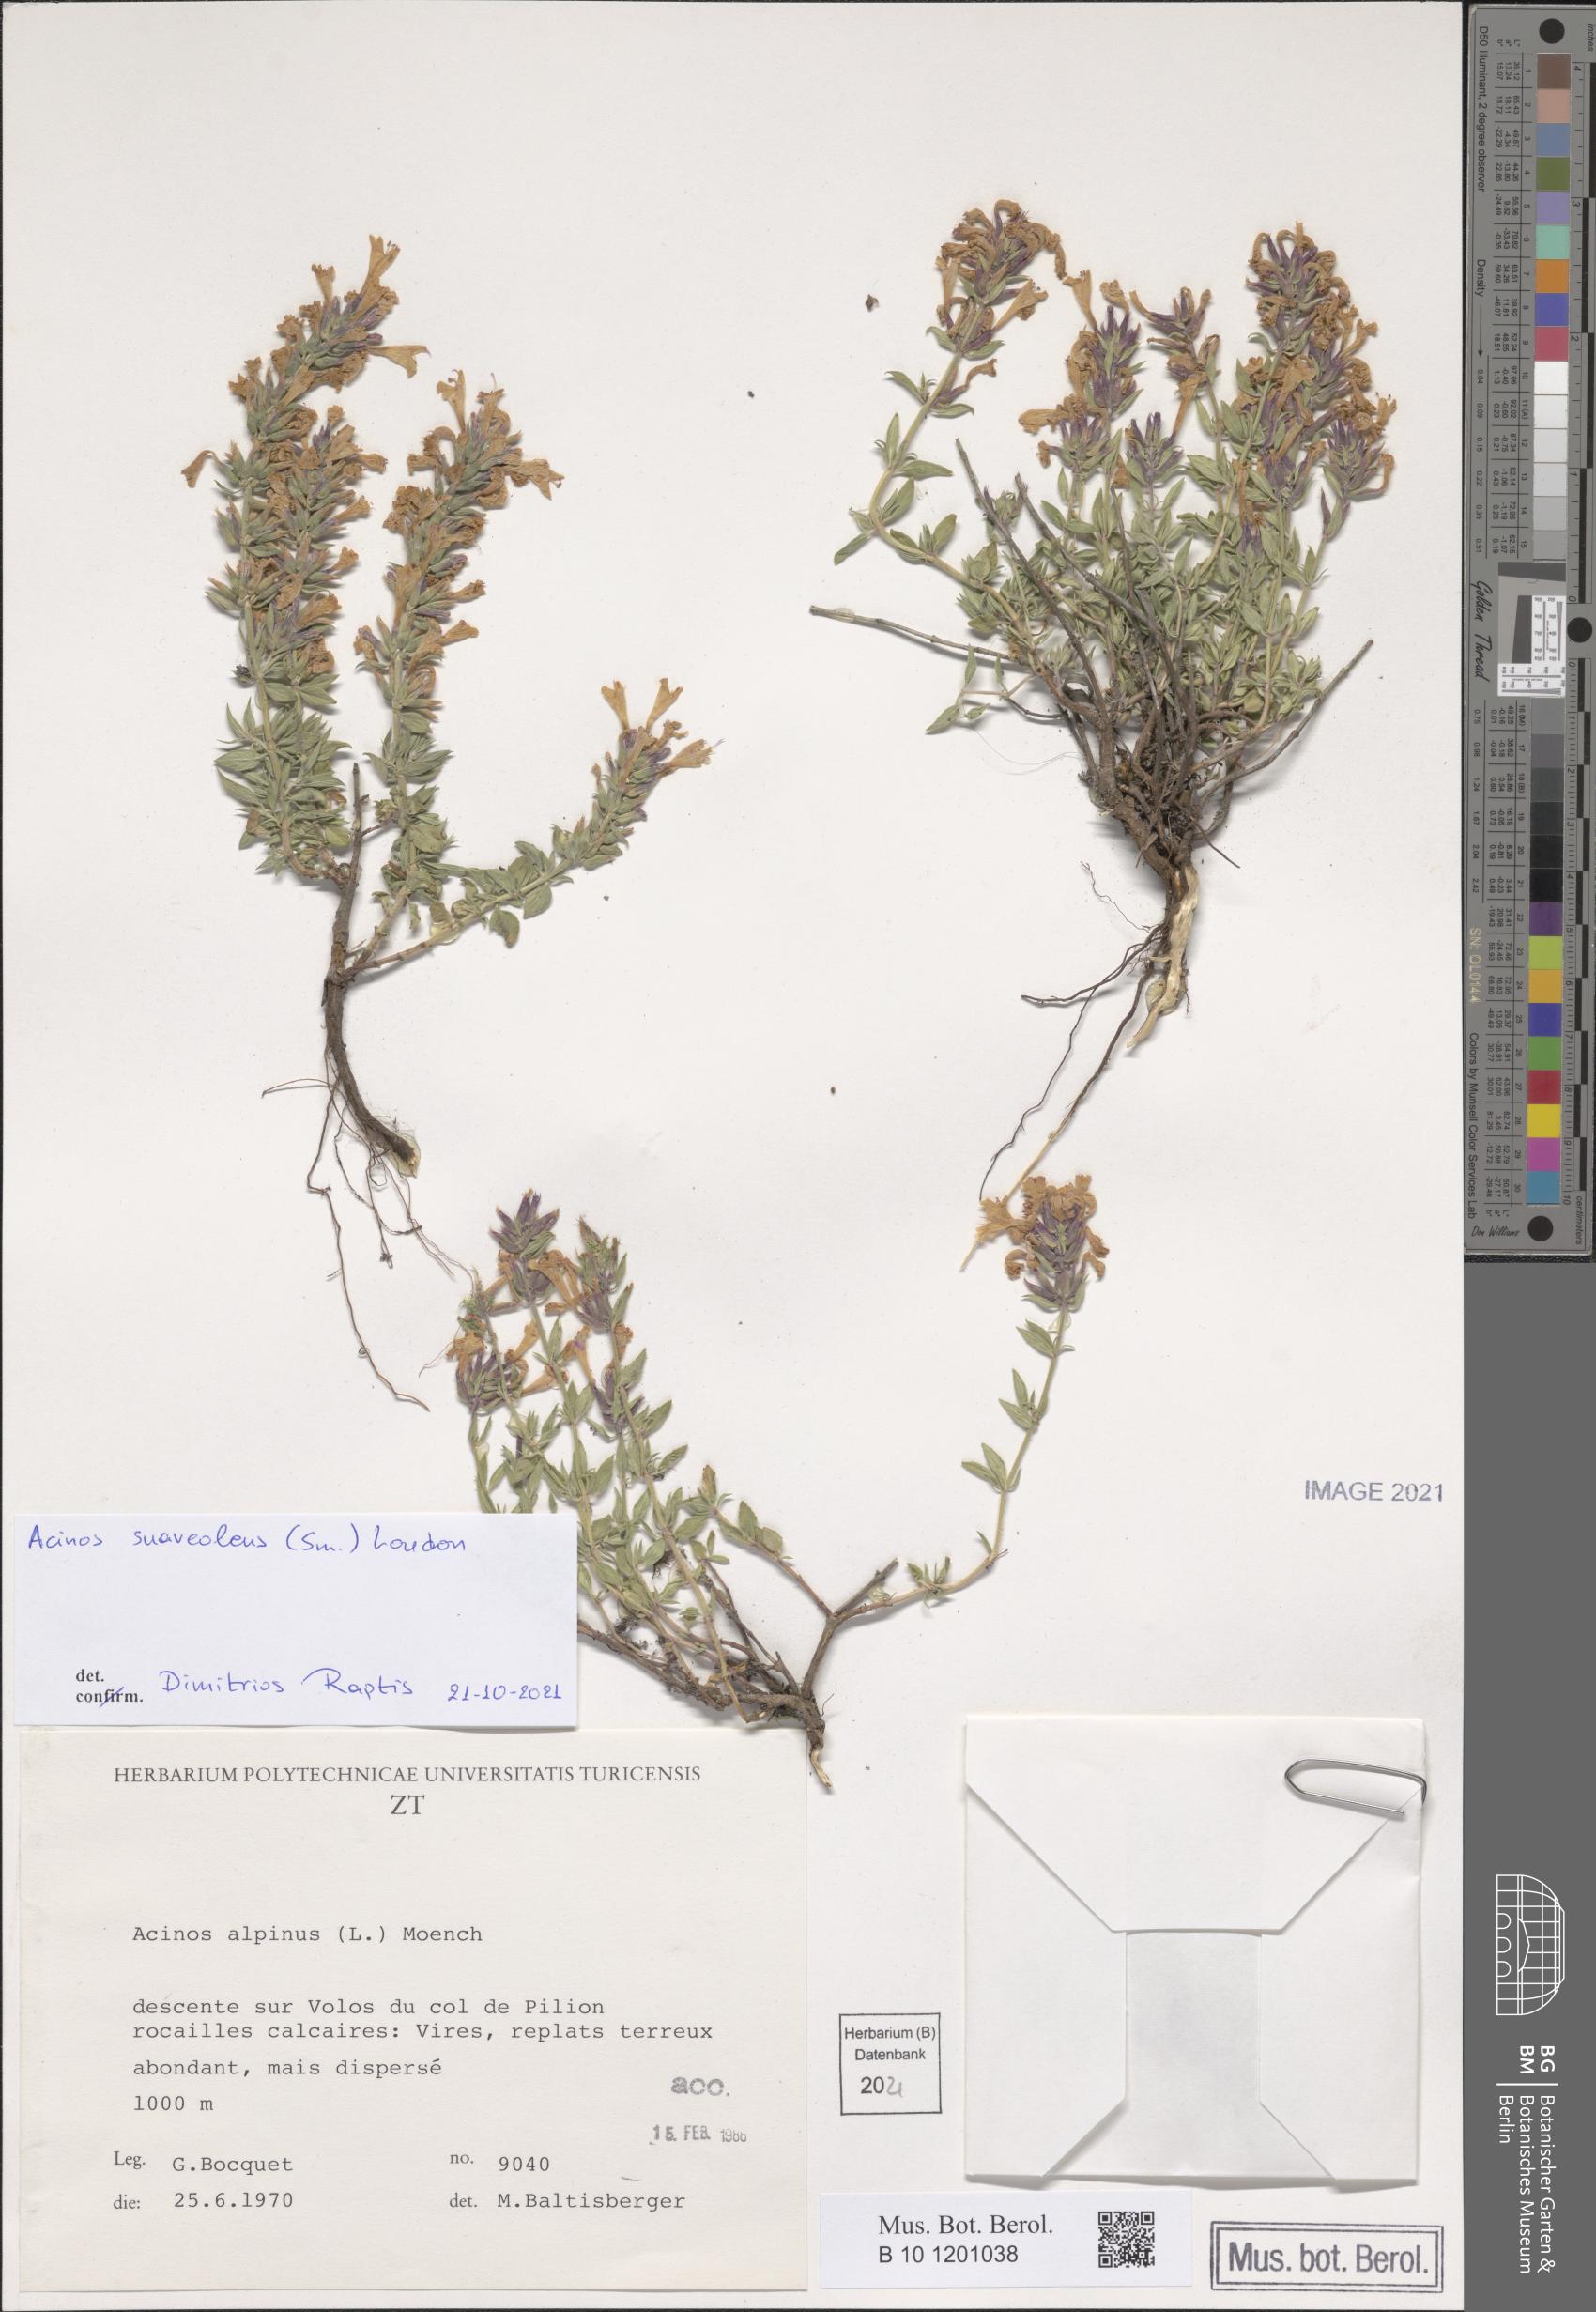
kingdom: Plantae
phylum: Tracheophyta
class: Magnoliopsida
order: Lamiales
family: Lamiaceae
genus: Clinopodium
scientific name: Clinopodium suaveolens
